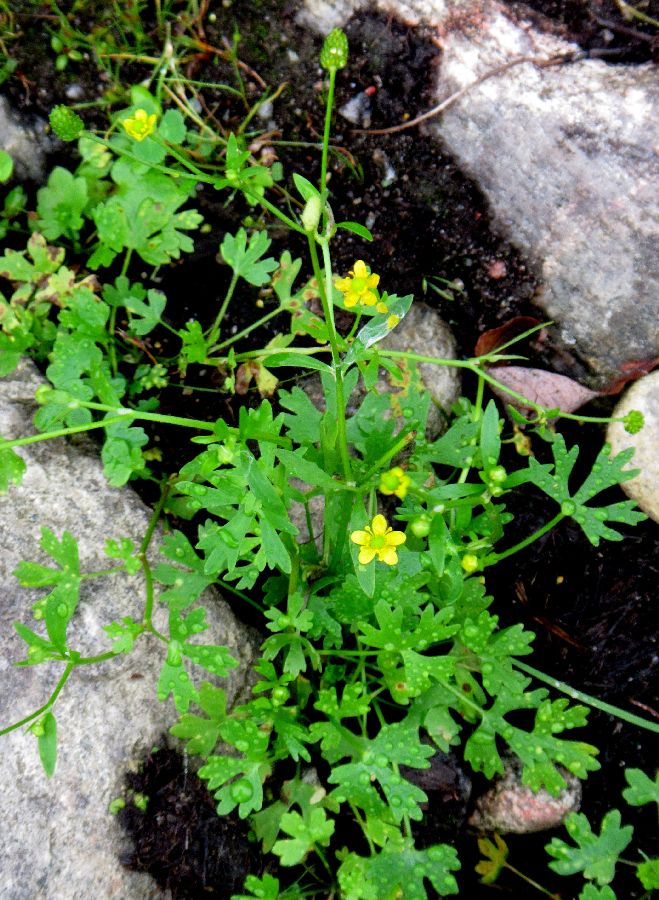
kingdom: Plantae
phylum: Tracheophyta
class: Magnoliopsida
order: Ranunculales
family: Ranunculaceae
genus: Ranunculus
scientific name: Ranunculus reptabundus
